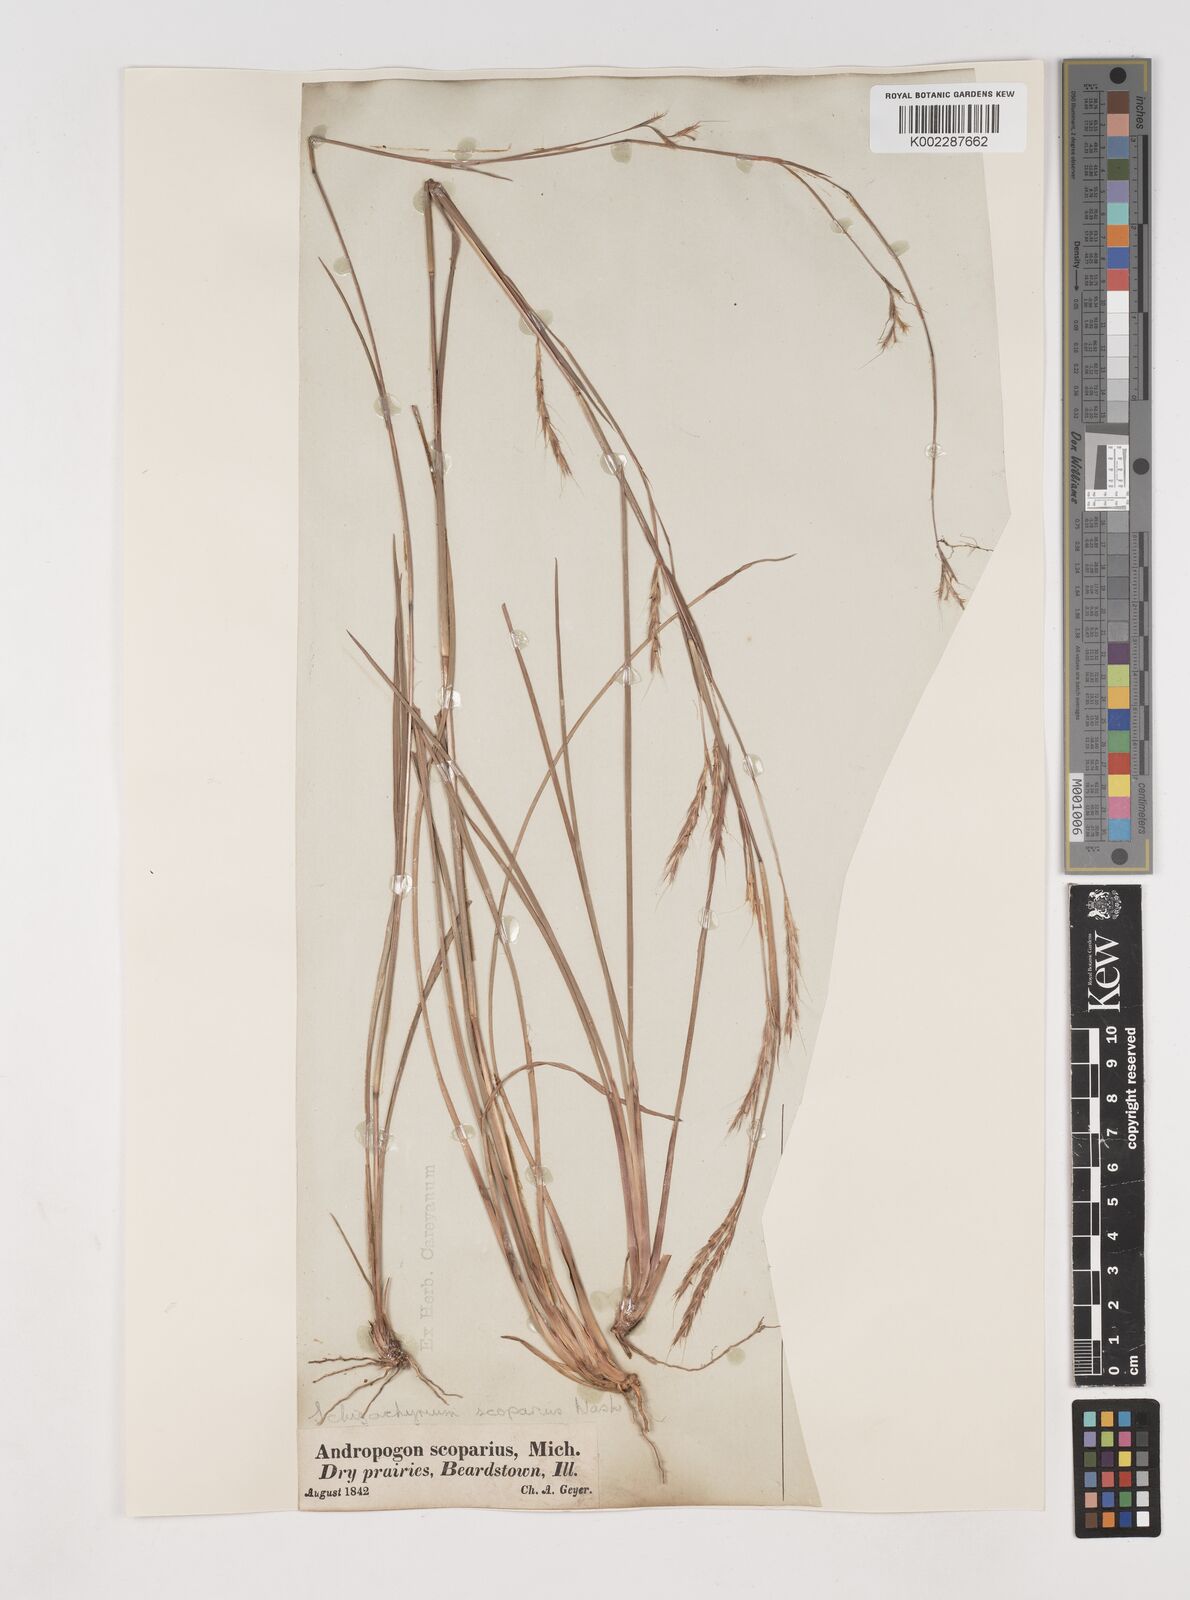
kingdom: Plantae
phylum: Tracheophyta
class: Liliopsida
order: Poales
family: Poaceae
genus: Schizachyrium
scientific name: Schizachyrium scoparium
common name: Little bluestem
